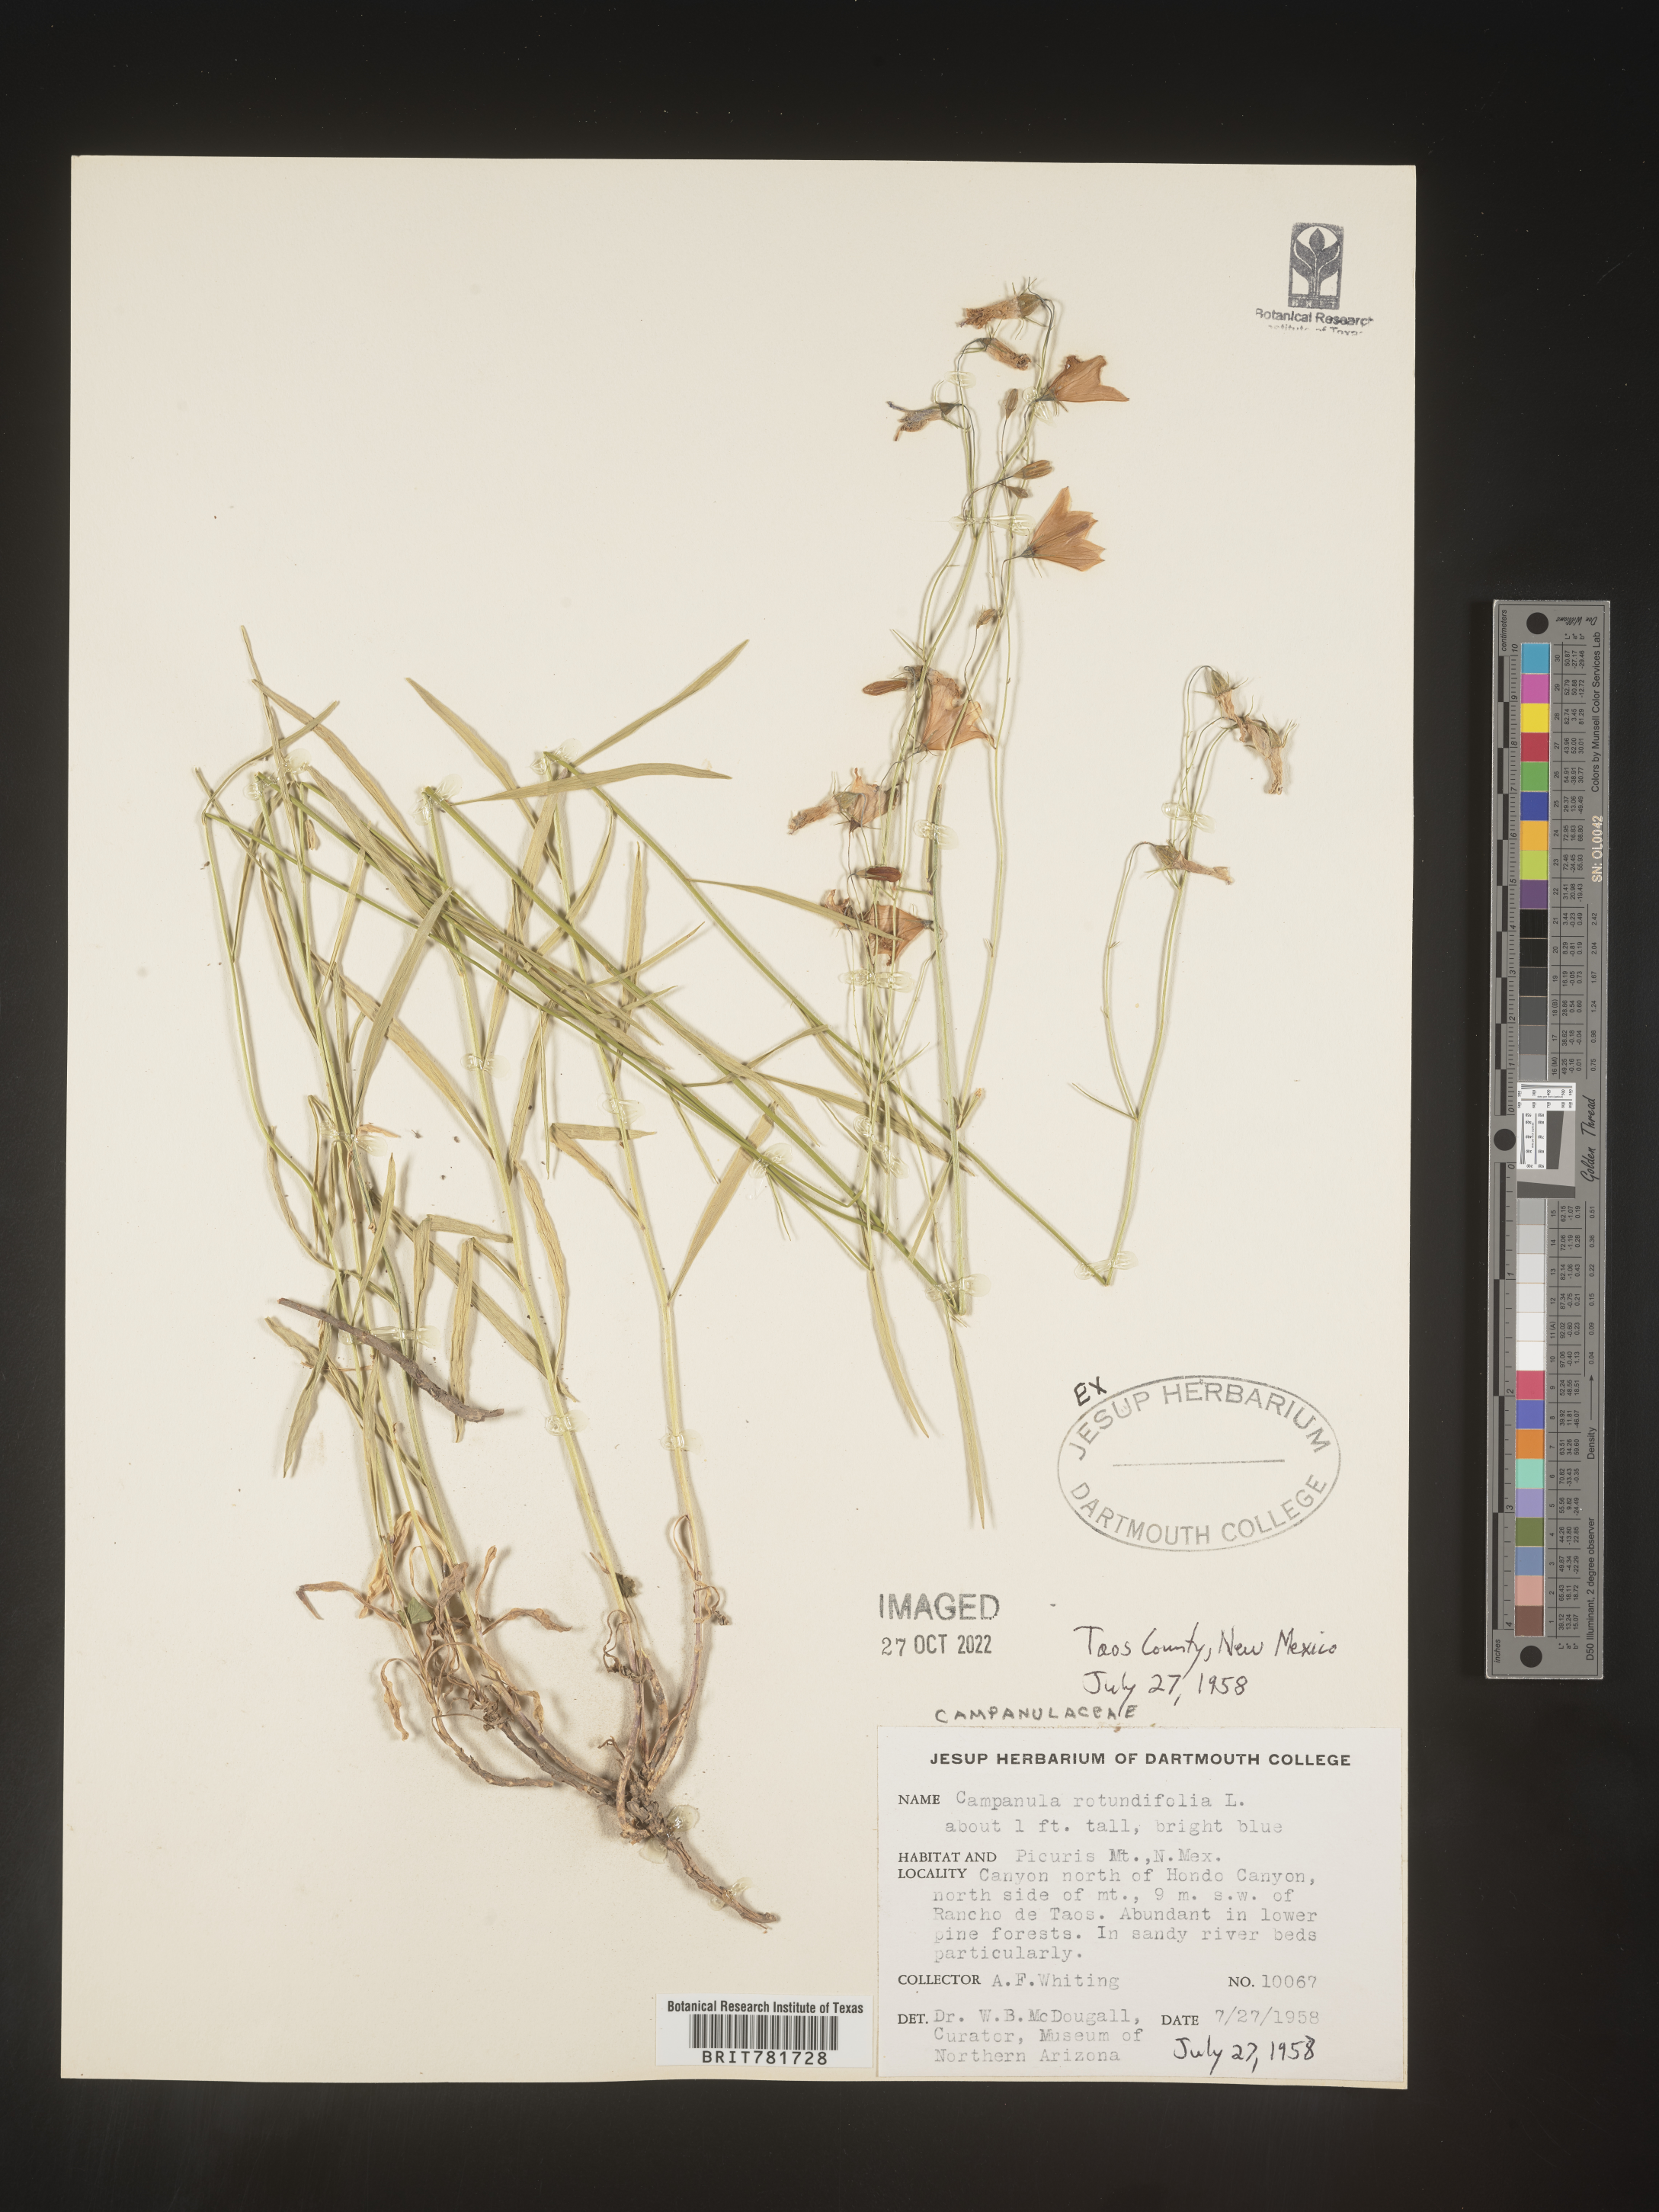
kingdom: Plantae
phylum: Tracheophyta
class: Magnoliopsida
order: Asterales
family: Campanulaceae
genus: Campanula
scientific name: Campanula rotundifolia
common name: Harebell
